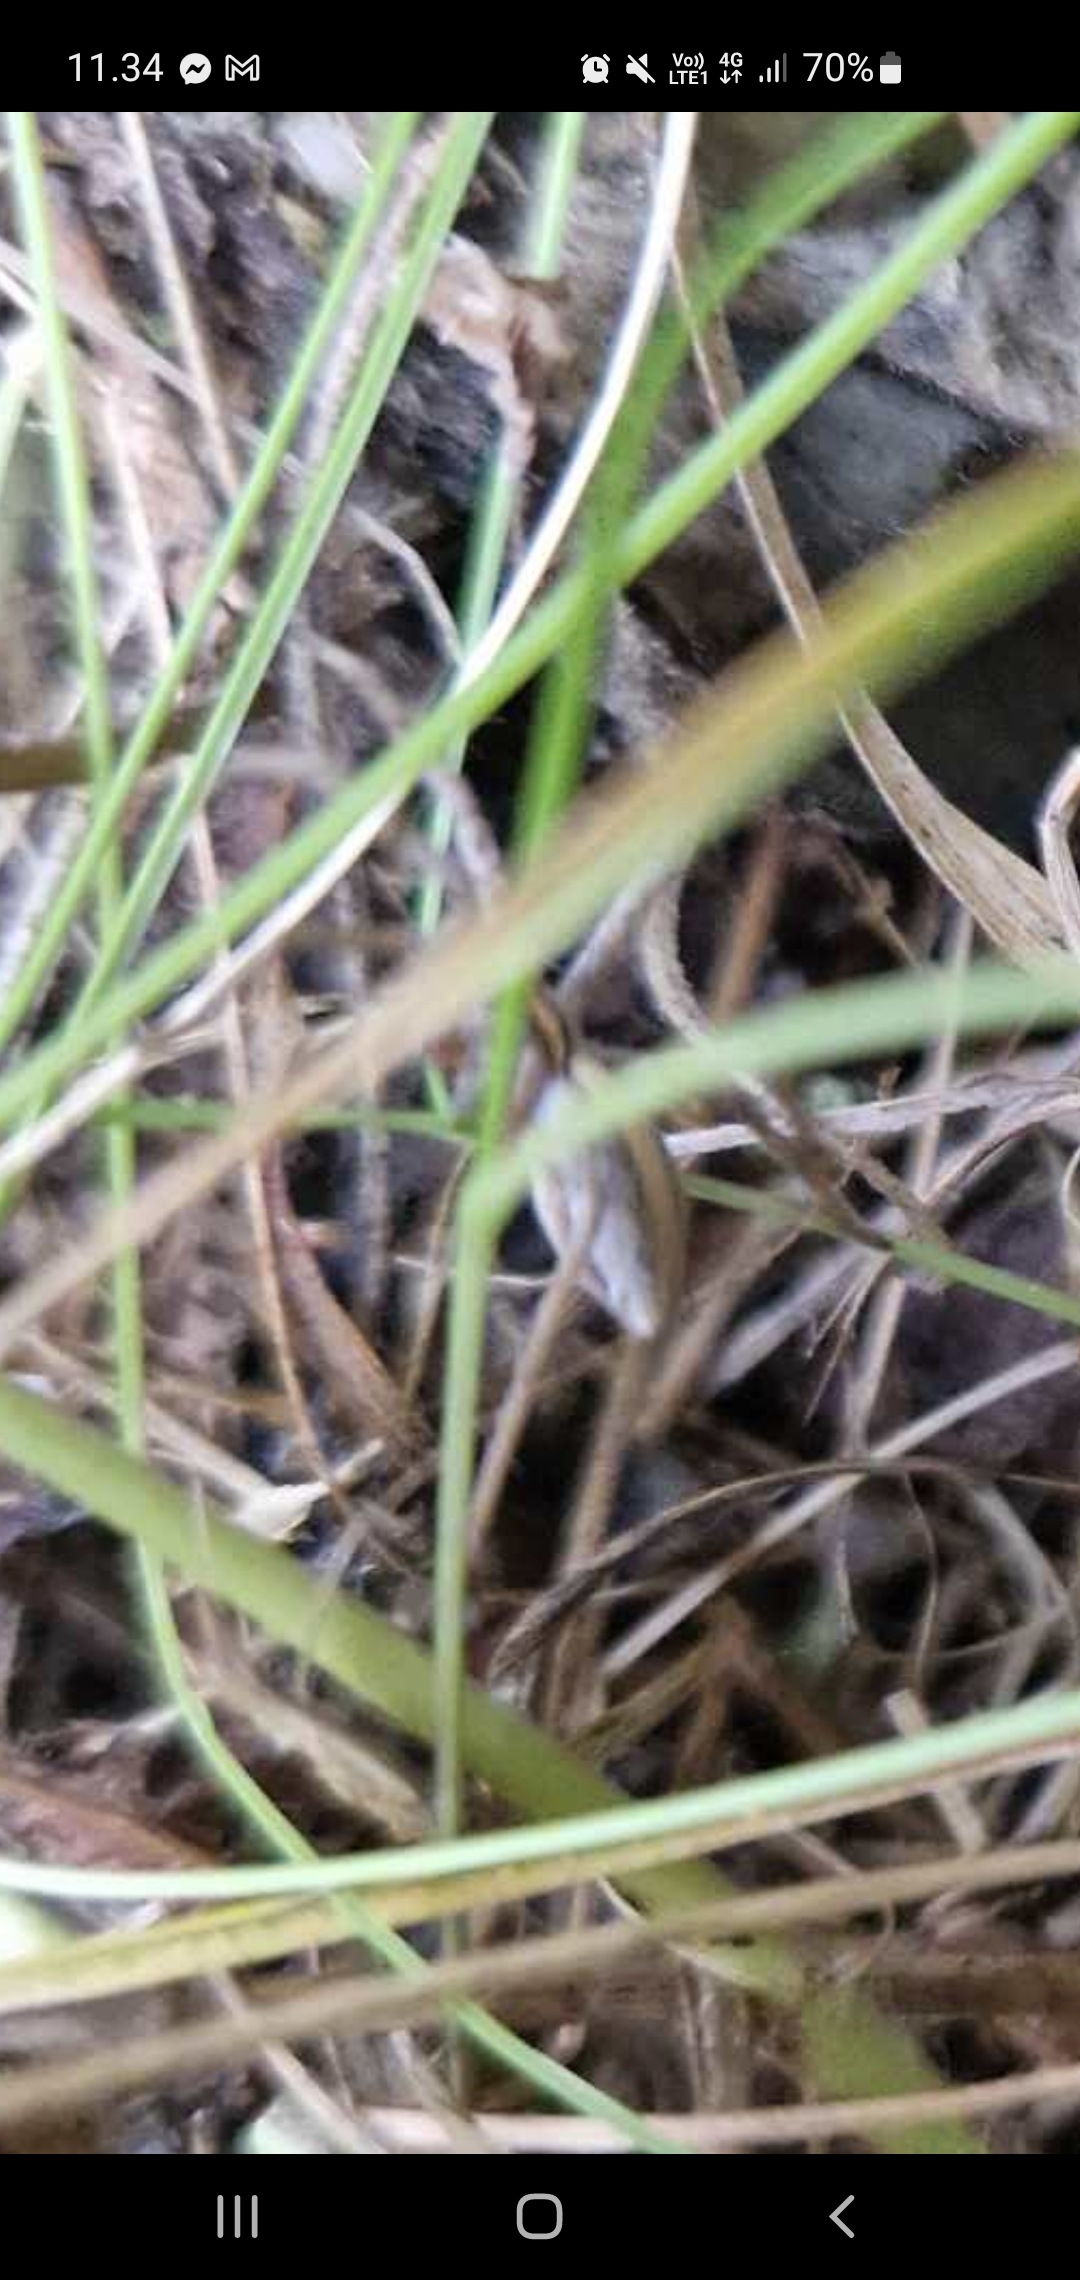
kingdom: Animalia
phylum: Arthropoda
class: Arachnida
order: Araneae
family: Pisauridae
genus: Pisaura
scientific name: Pisaura mirabilis
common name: Almindelig rovedderkop
